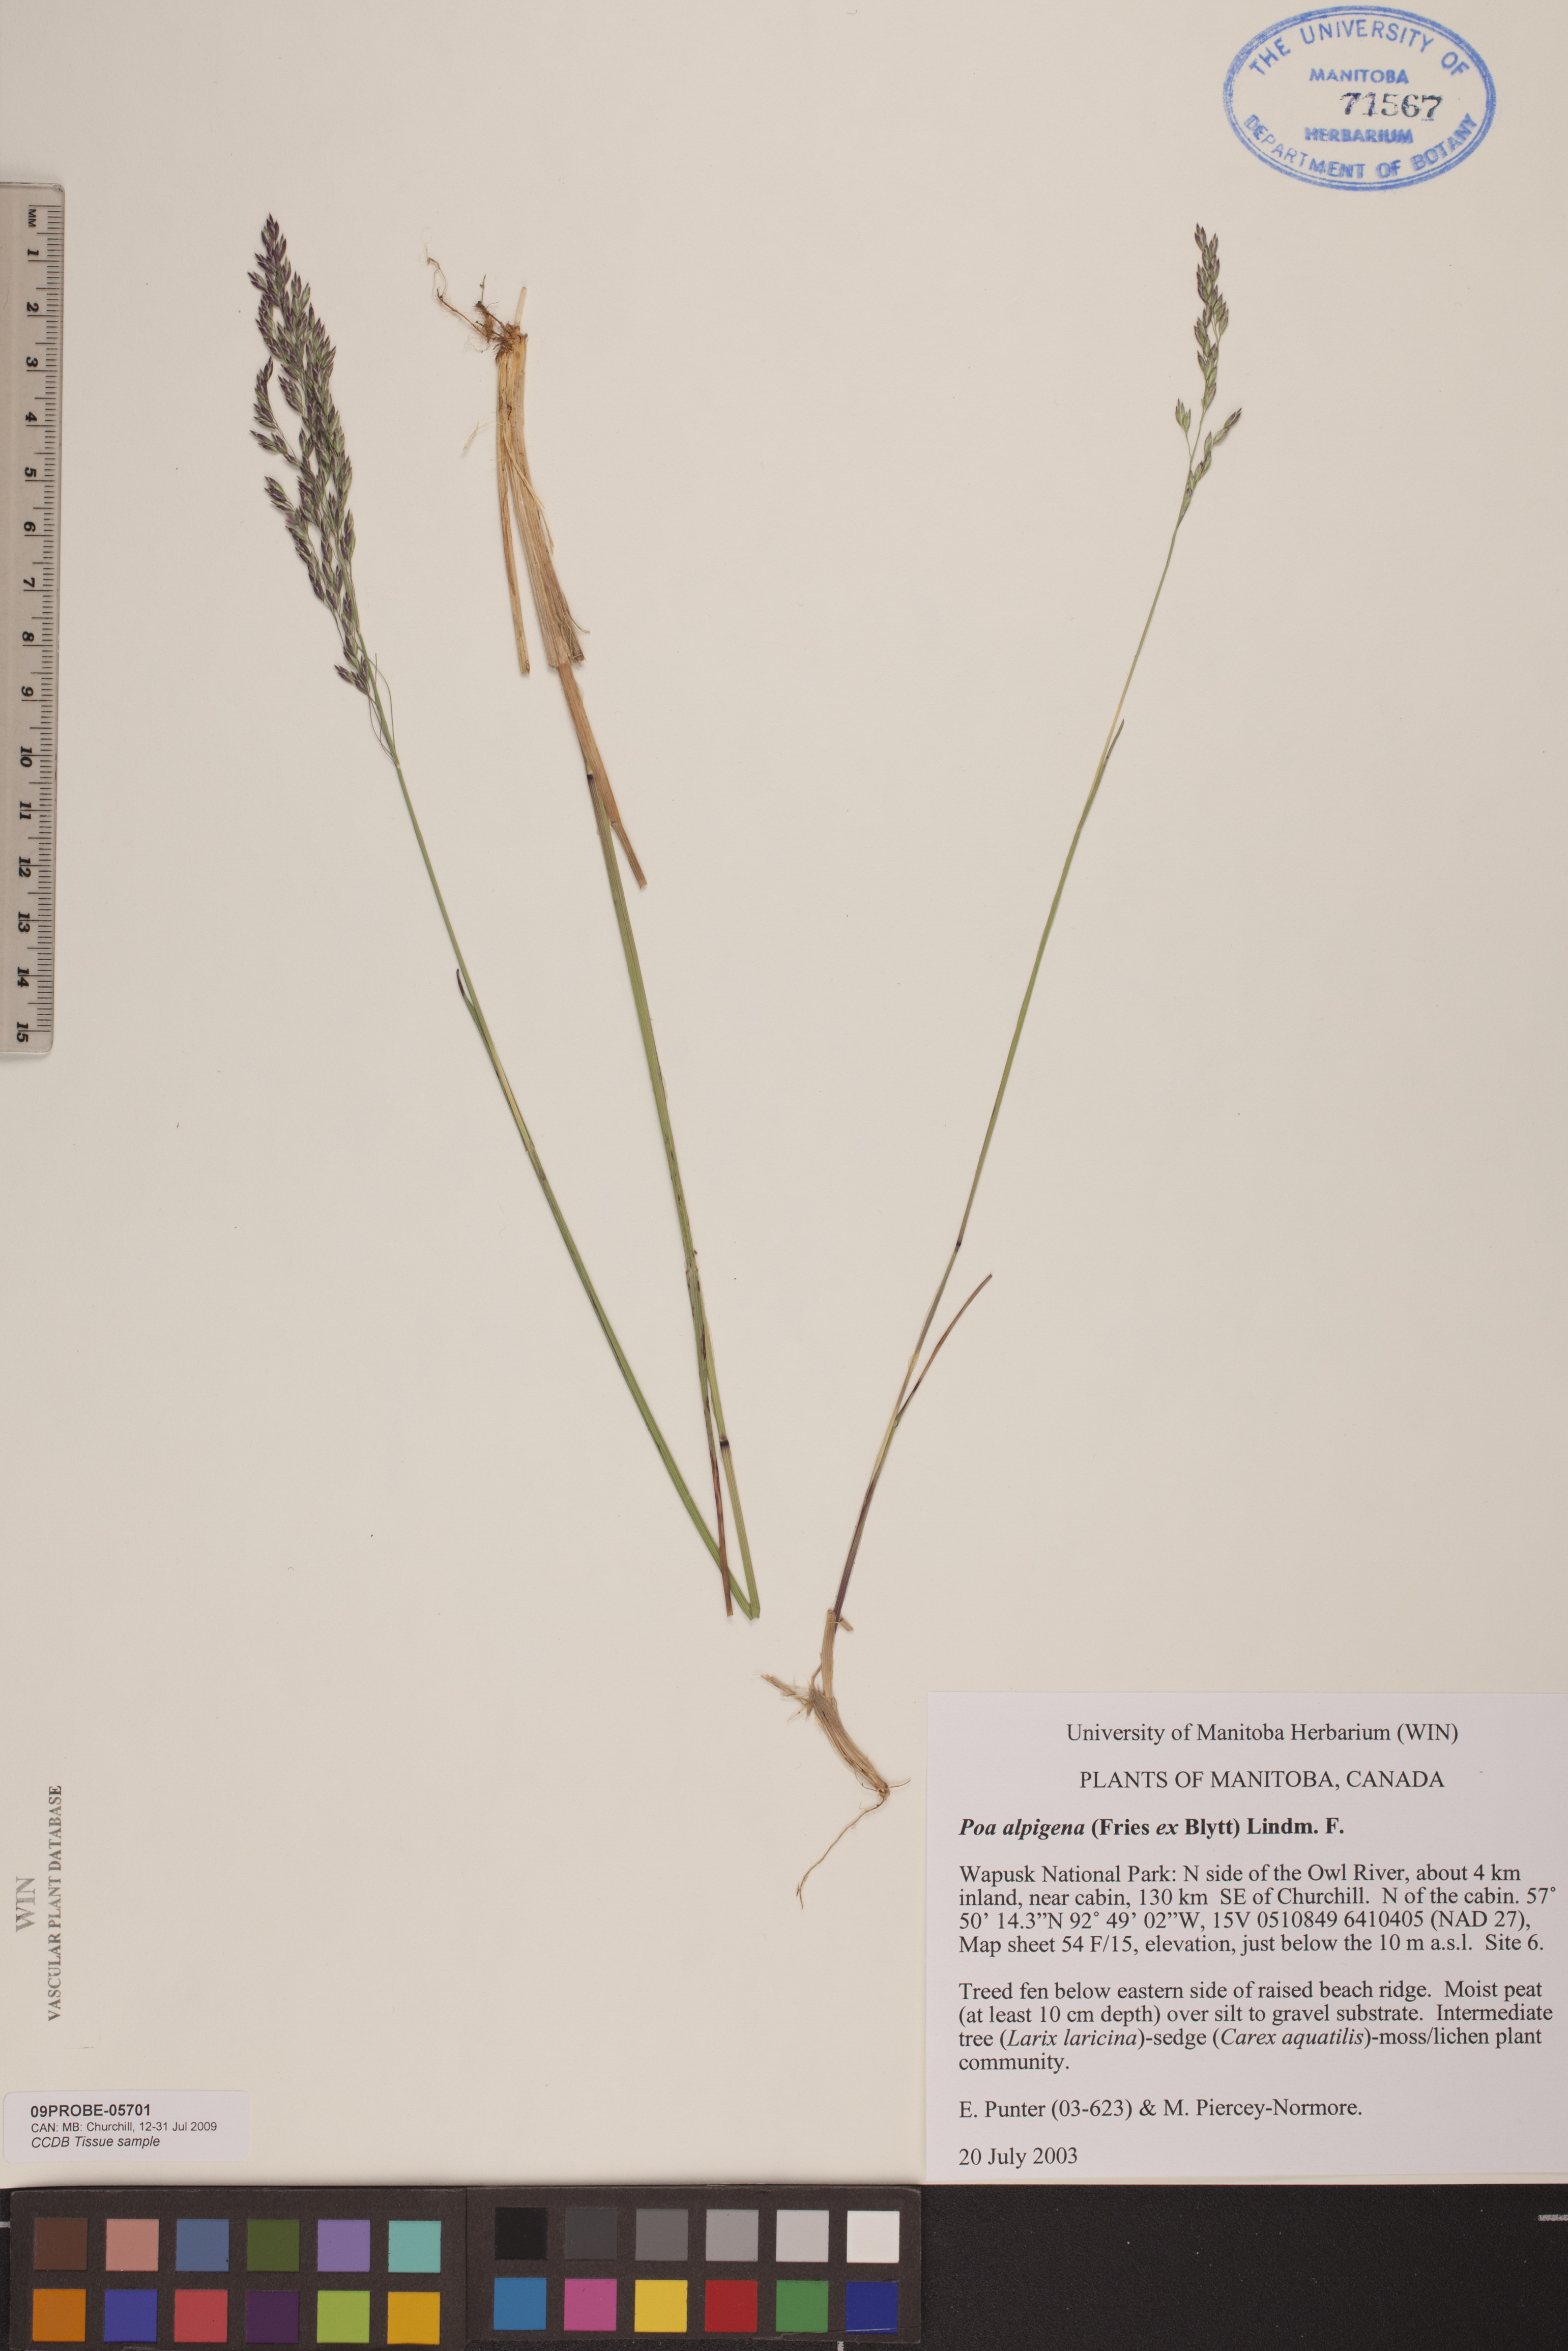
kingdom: Plantae
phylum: Tracheophyta
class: Liliopsida
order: Poales
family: Poaceae
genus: Poa
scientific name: Poa alpigena
